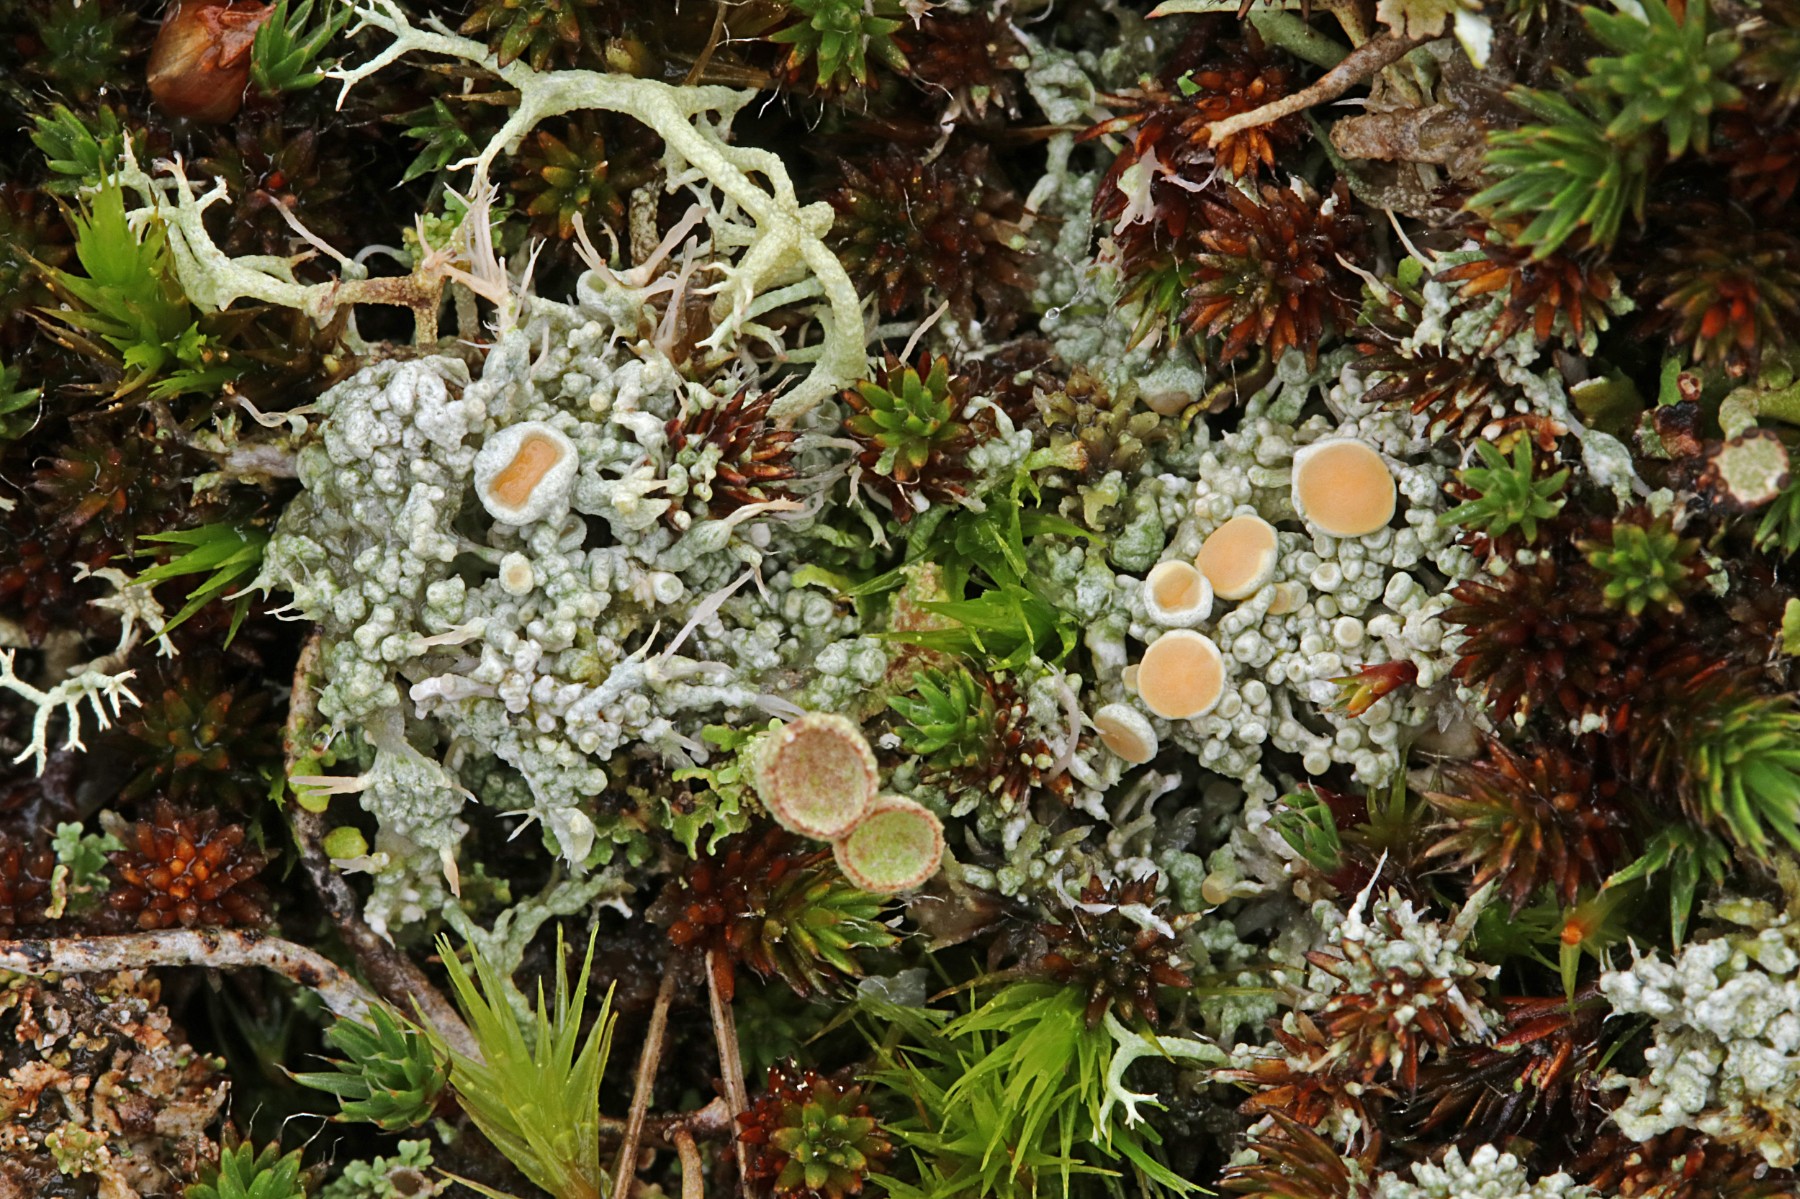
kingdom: Fungi
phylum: Ascomycota
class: Lecanoromycetes
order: Pertusariales
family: Ochrolechiaceae
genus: Ochrolechia
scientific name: Ochrolechia frigida
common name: fjeld-blegskivelav
